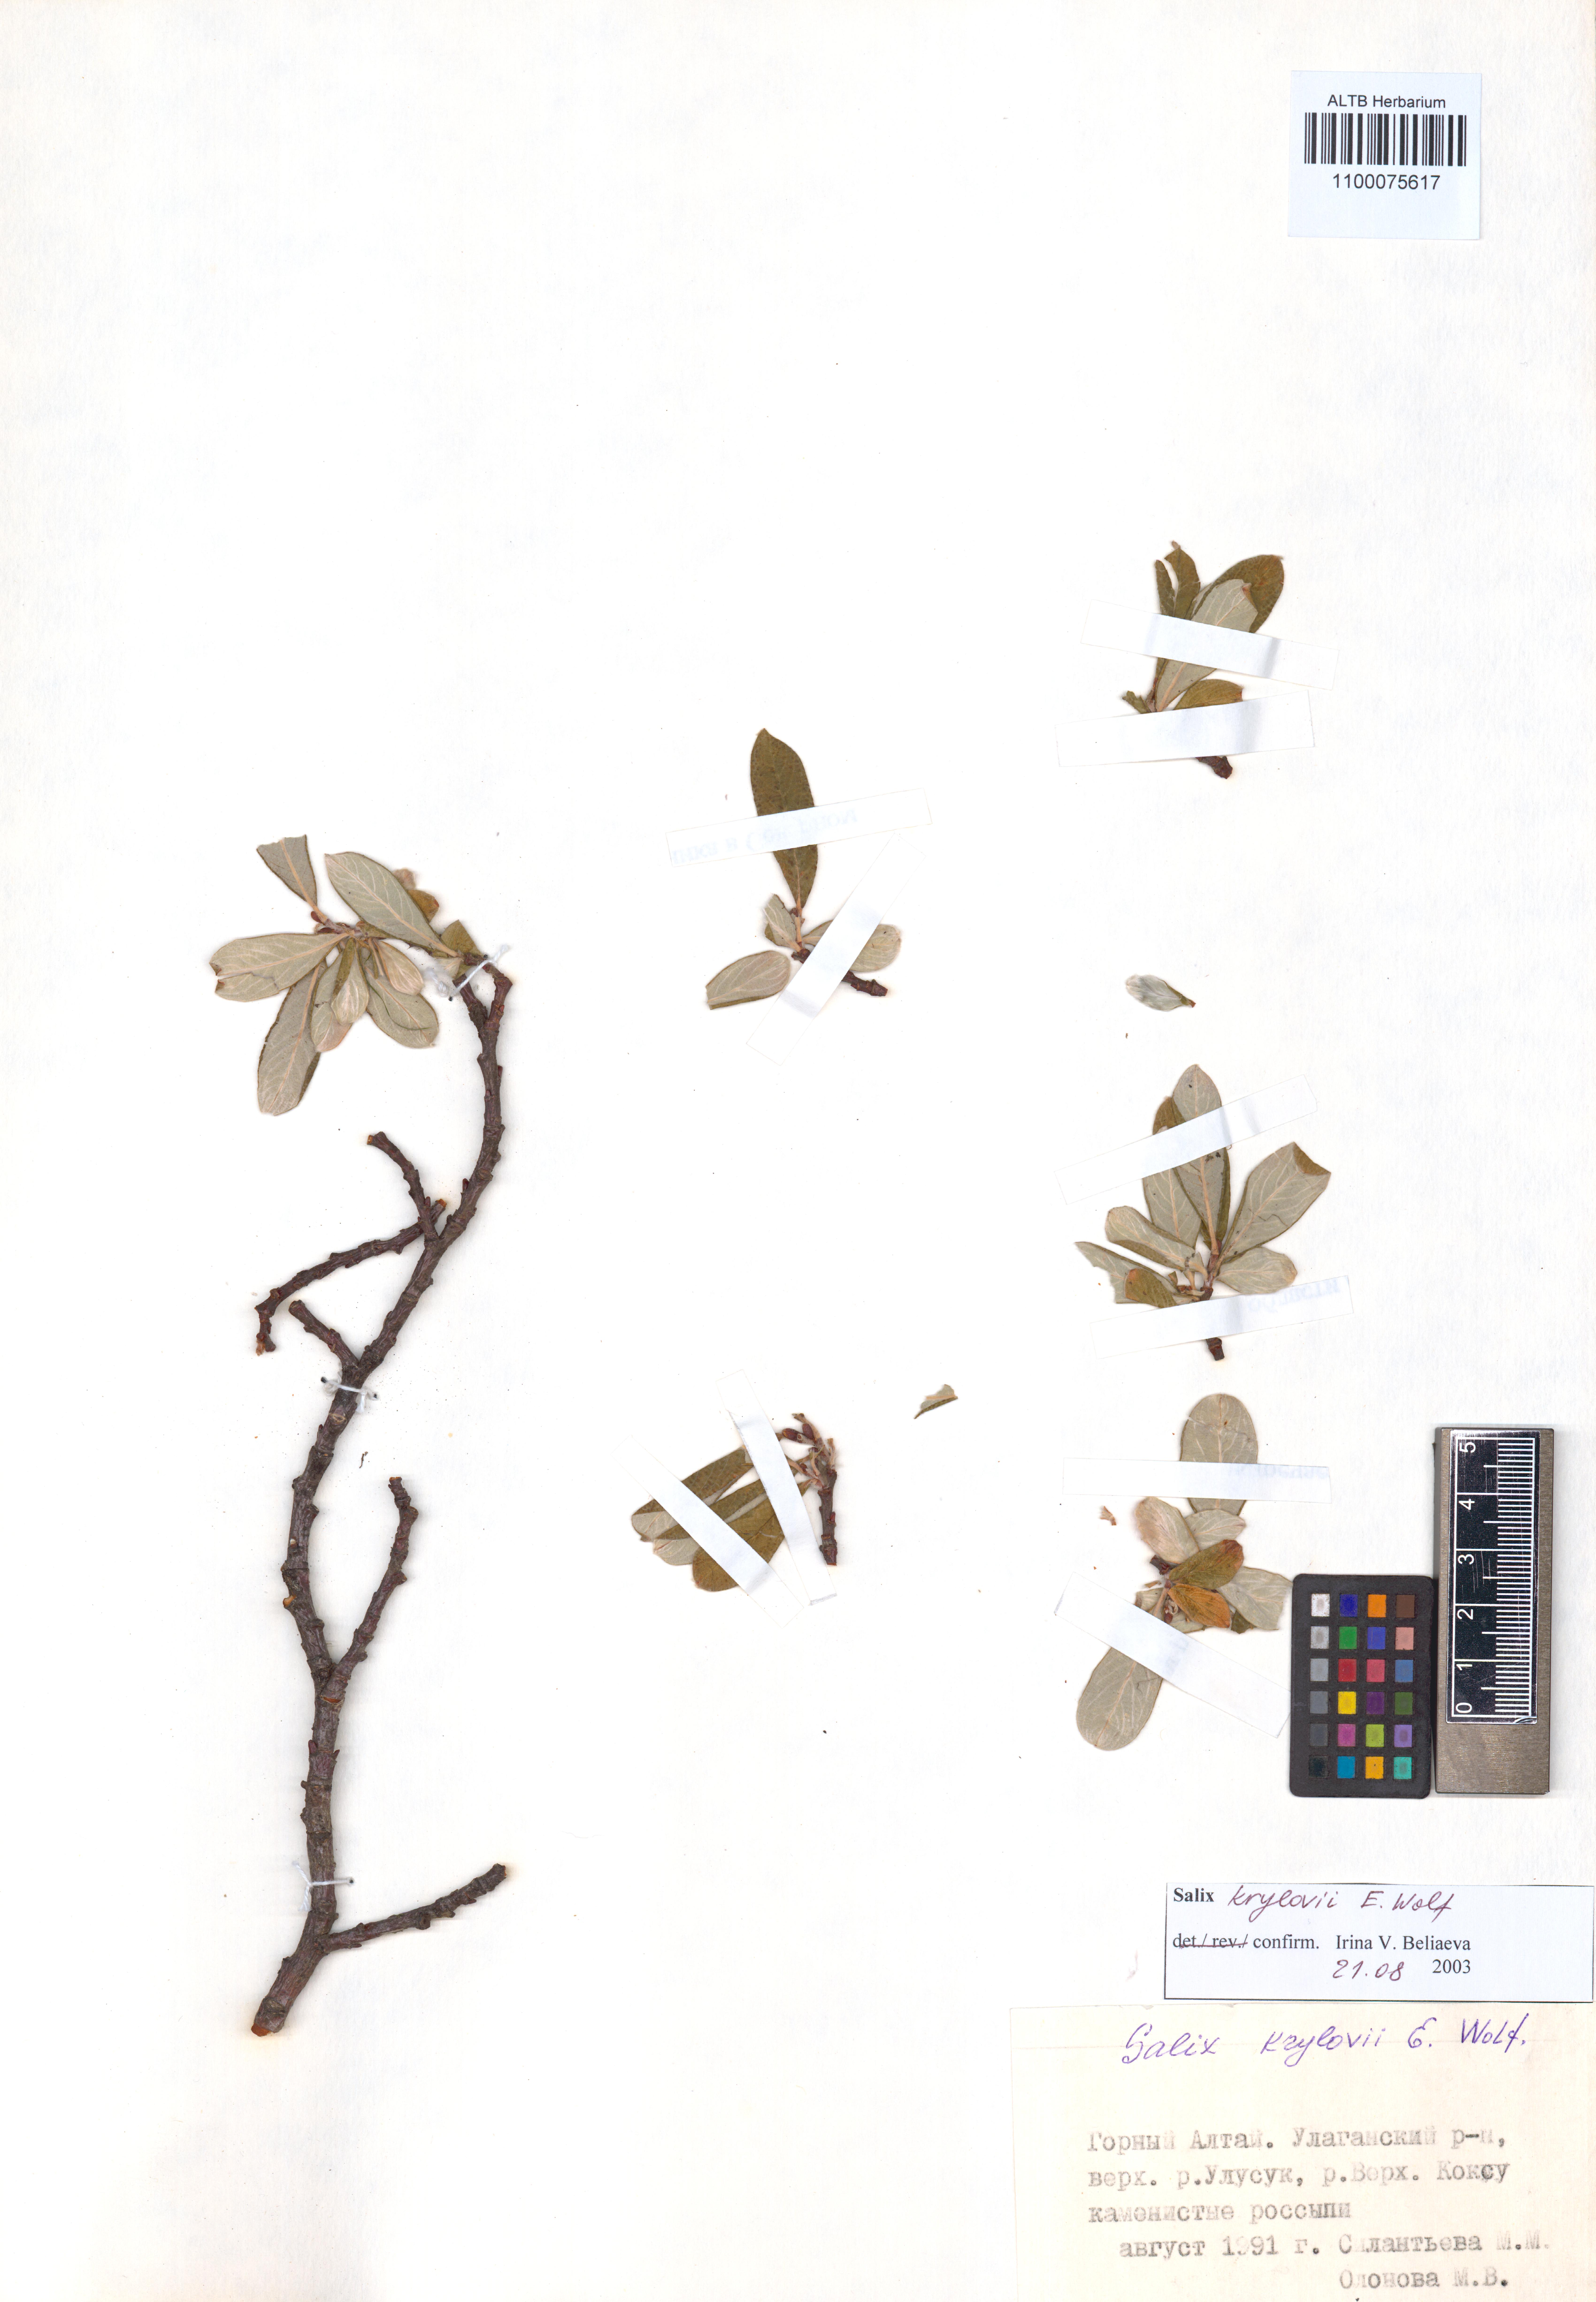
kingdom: Plantae
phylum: Tracheophyta
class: Magnoliopsida
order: Malpighiales
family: Salicaceae
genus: Salix
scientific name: Salix krylovii
